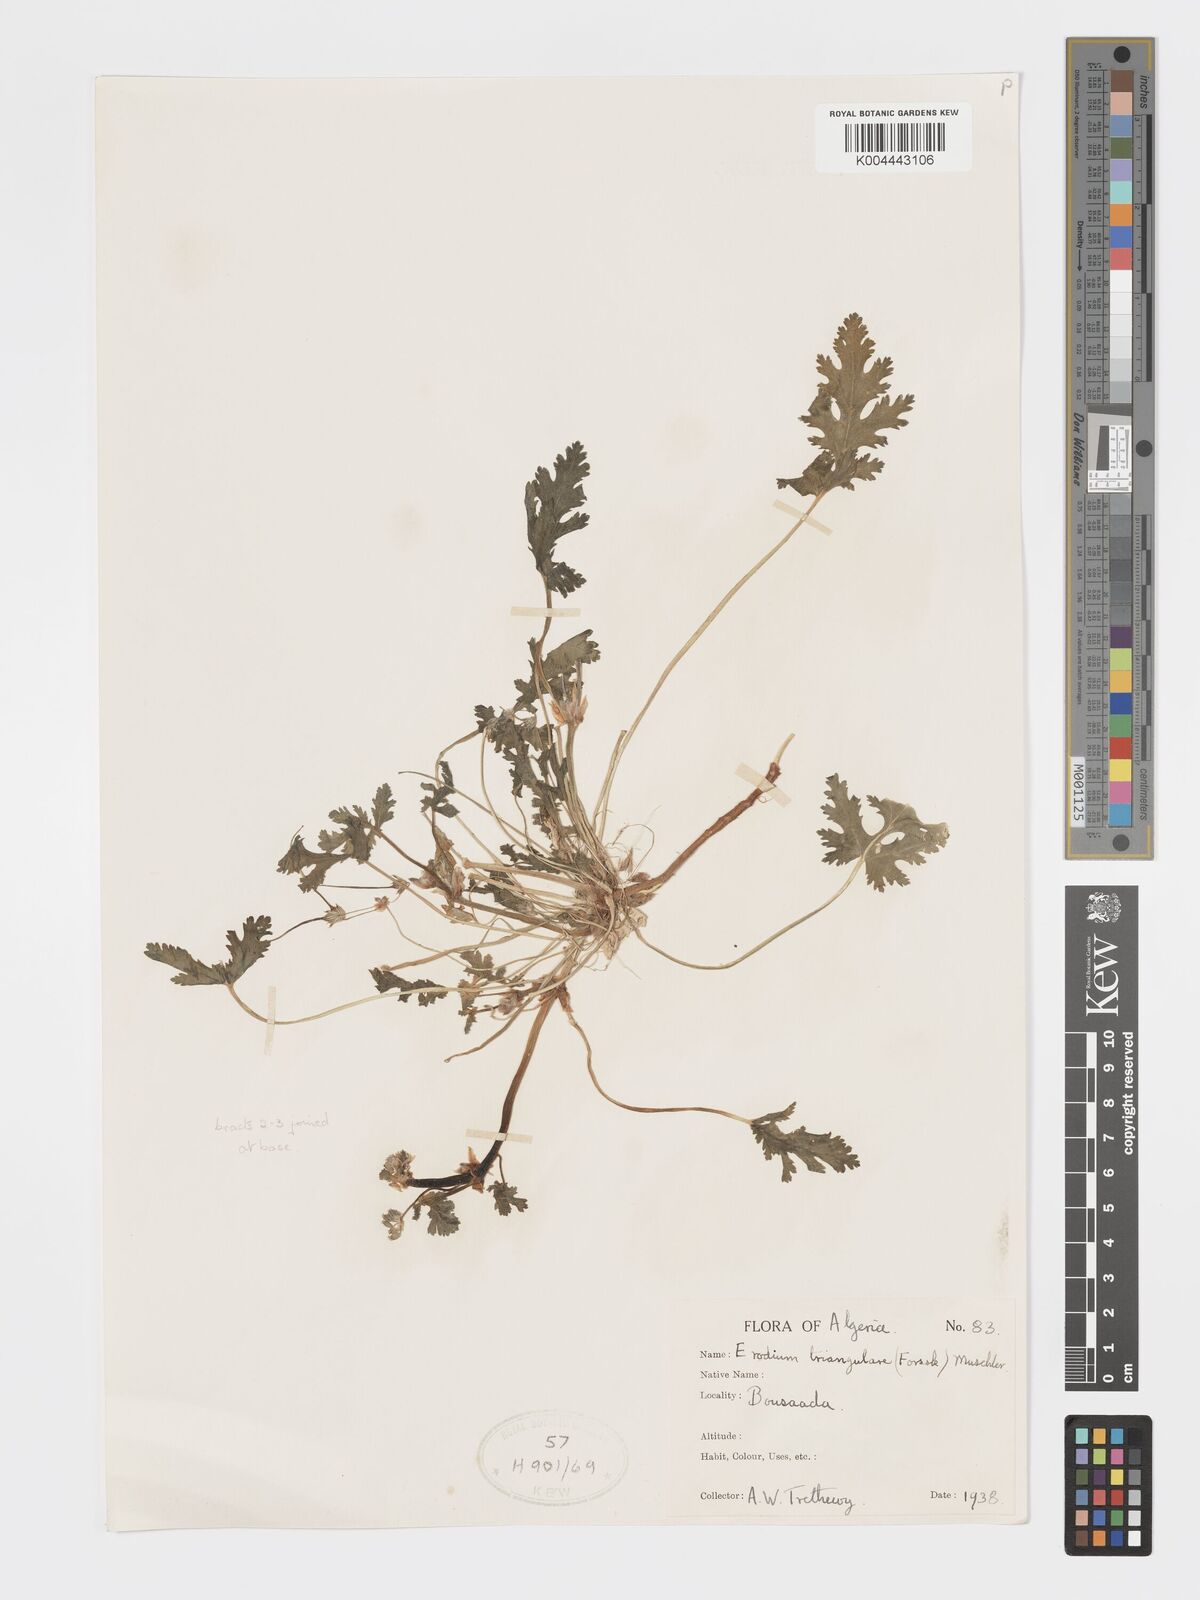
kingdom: Plantae
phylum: Tracheophyta
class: Magnoliopsida
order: Geraniales
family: Geraniaceae
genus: Erodium
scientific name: Erodium laciniatum
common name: Cutleaf stork's bill
